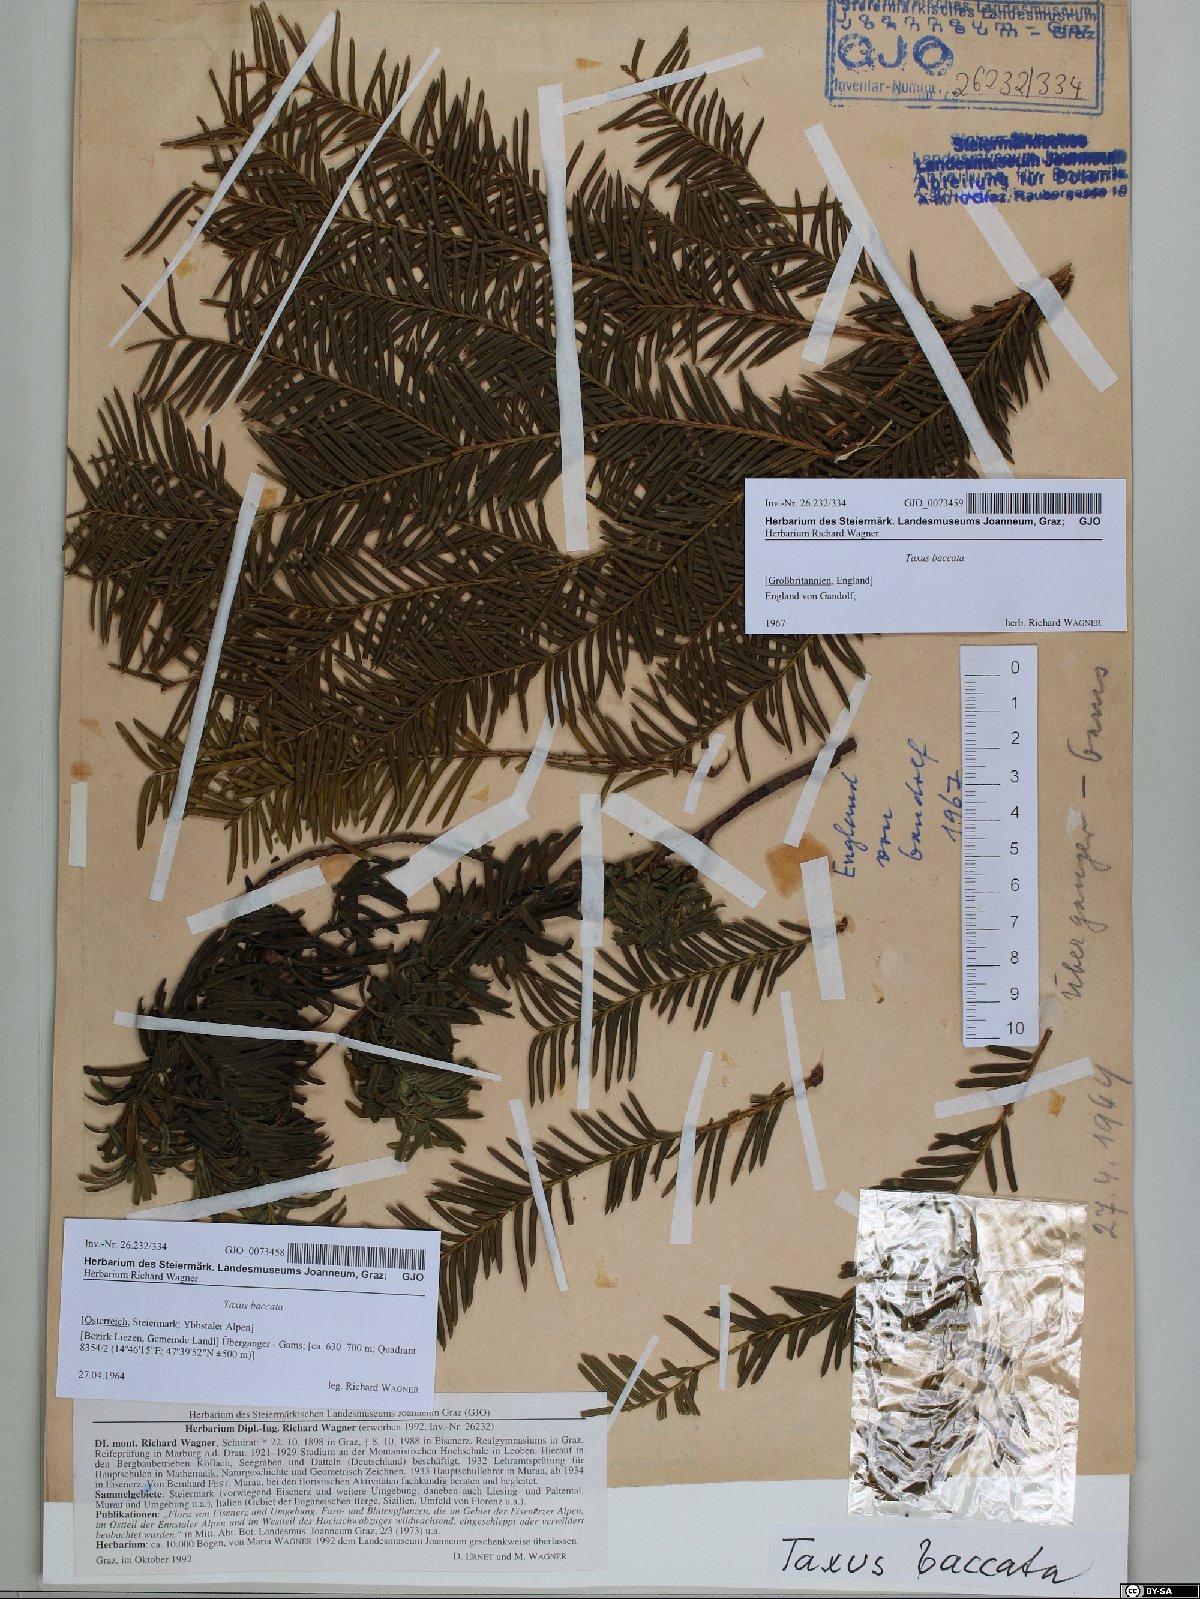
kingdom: Plantae
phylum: Tracheophyta
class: Pinopsida
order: Pinales
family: Taxaceae
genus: Taxus
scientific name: Taxus baccata
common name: Yew
